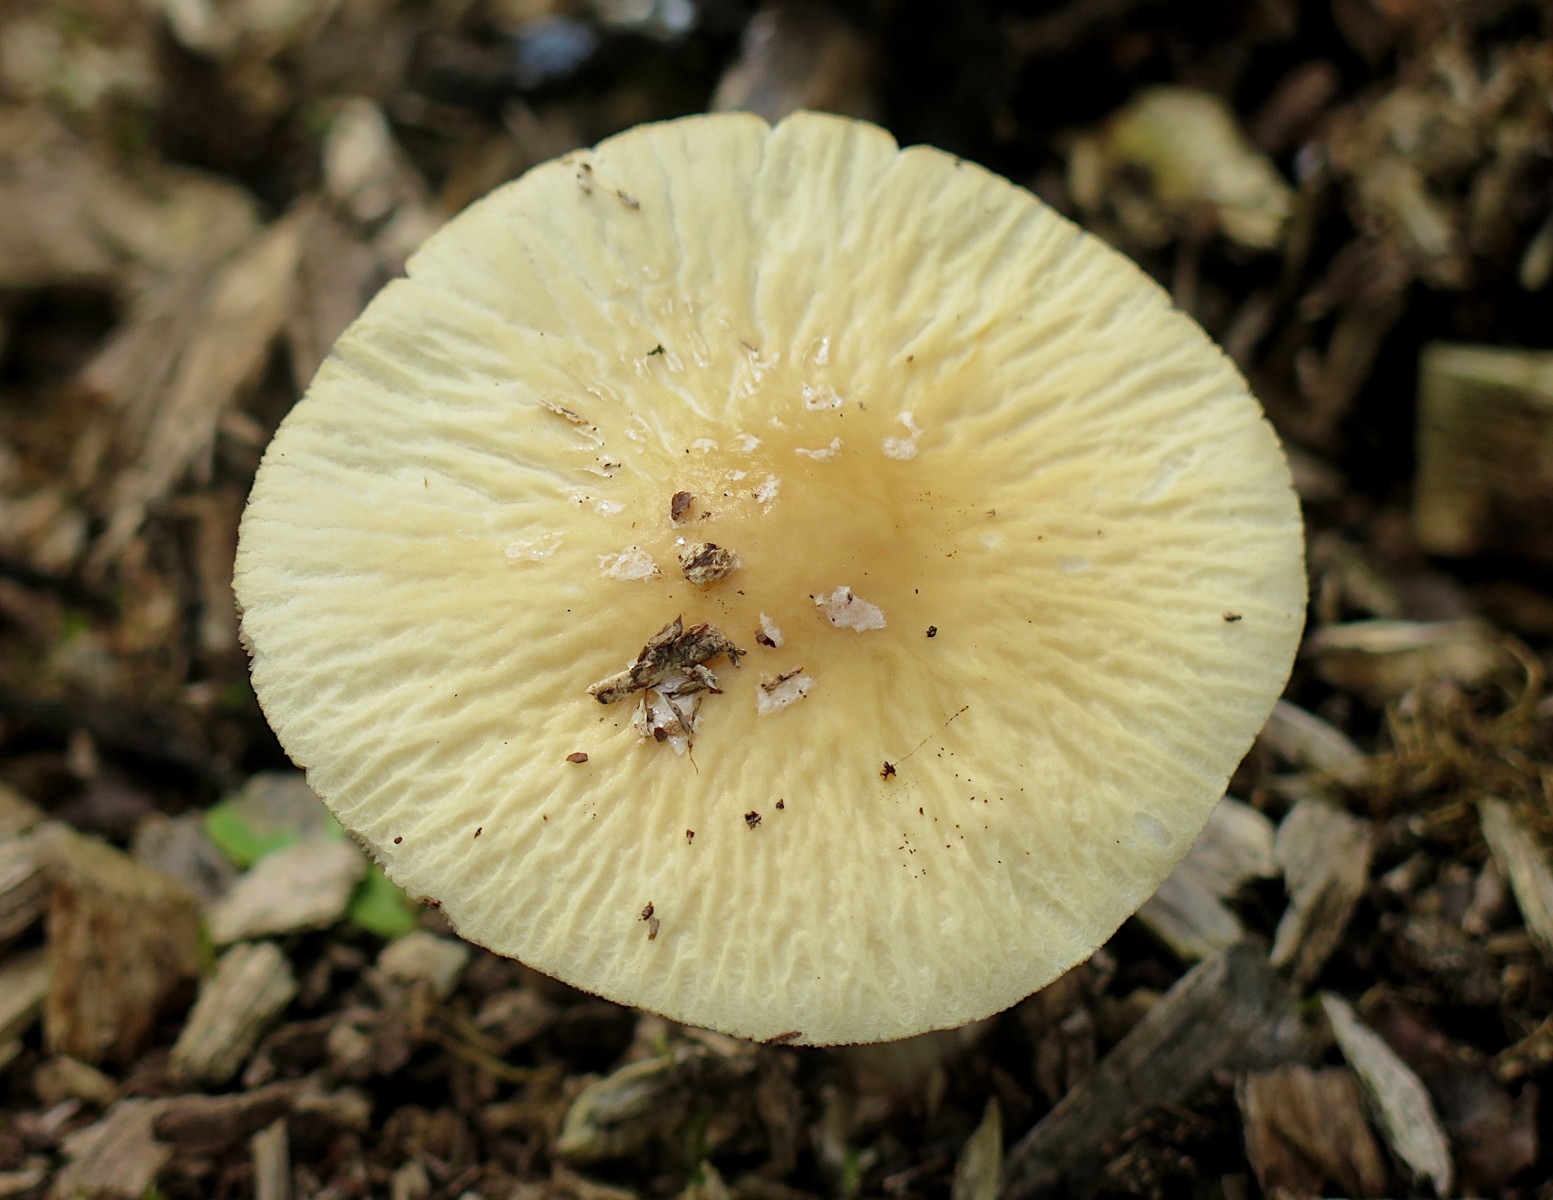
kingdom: Fungi
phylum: Basidiomycota
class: Agaricomycetes
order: Agaricales
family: Strophariaceae
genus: Agrocybe
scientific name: Agrocybe rivulosa
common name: året agerhat
